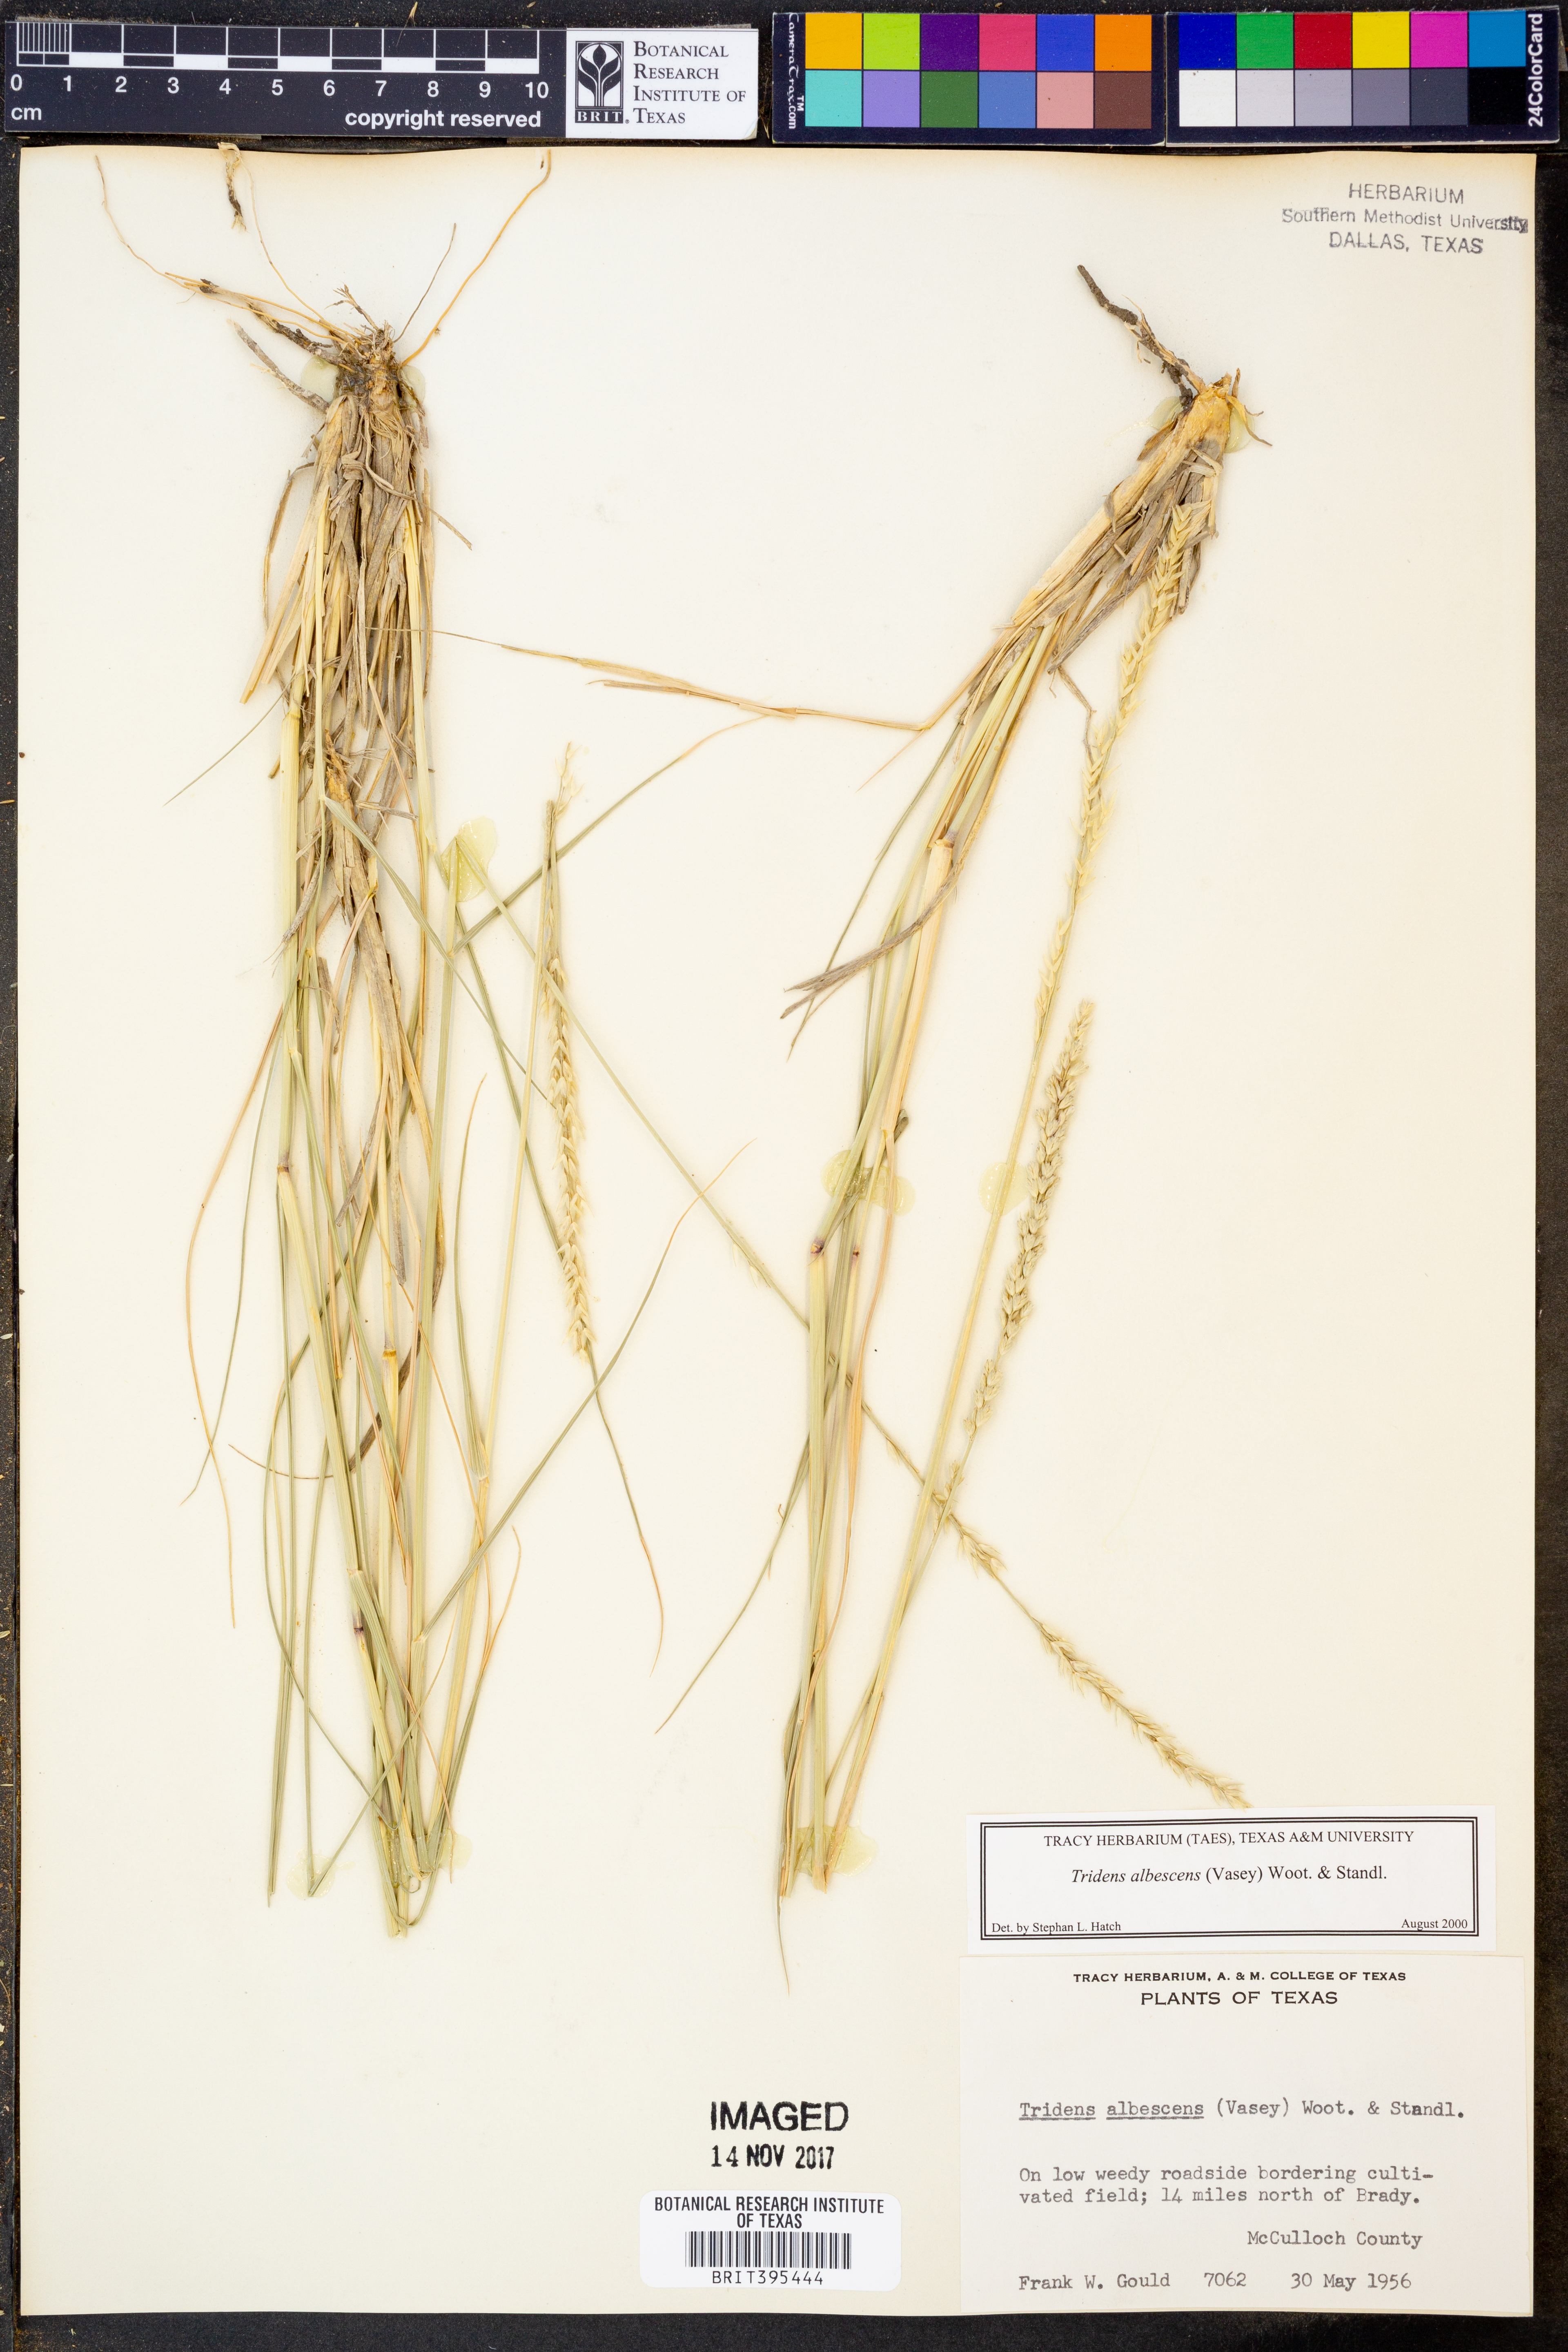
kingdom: Plantae
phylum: Tracheophyta
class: Liliopsida
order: Poales
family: Poaceae
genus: Tridens
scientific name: Tridens albescens
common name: White tridens
